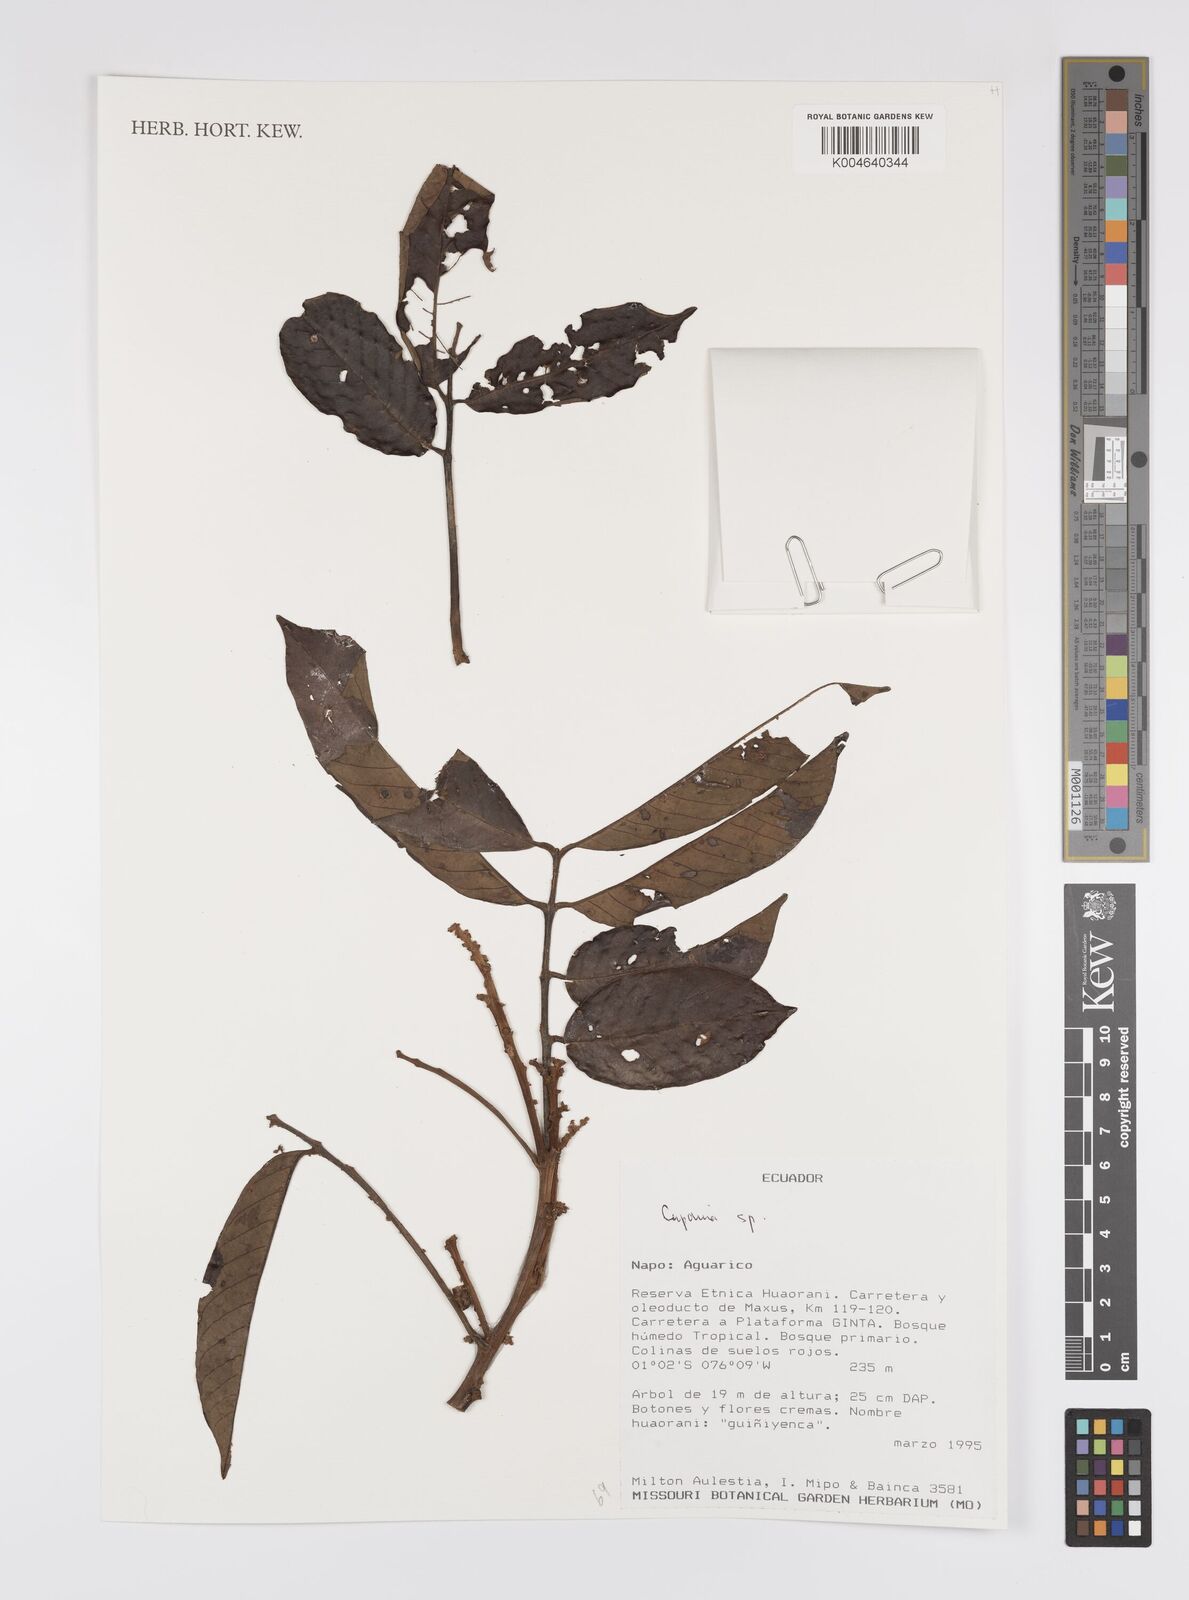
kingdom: Plantae
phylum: Tracheophyta
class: Magnoliopsida
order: Sapindales
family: Sapindaceae
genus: Cupania
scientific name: Cupania
